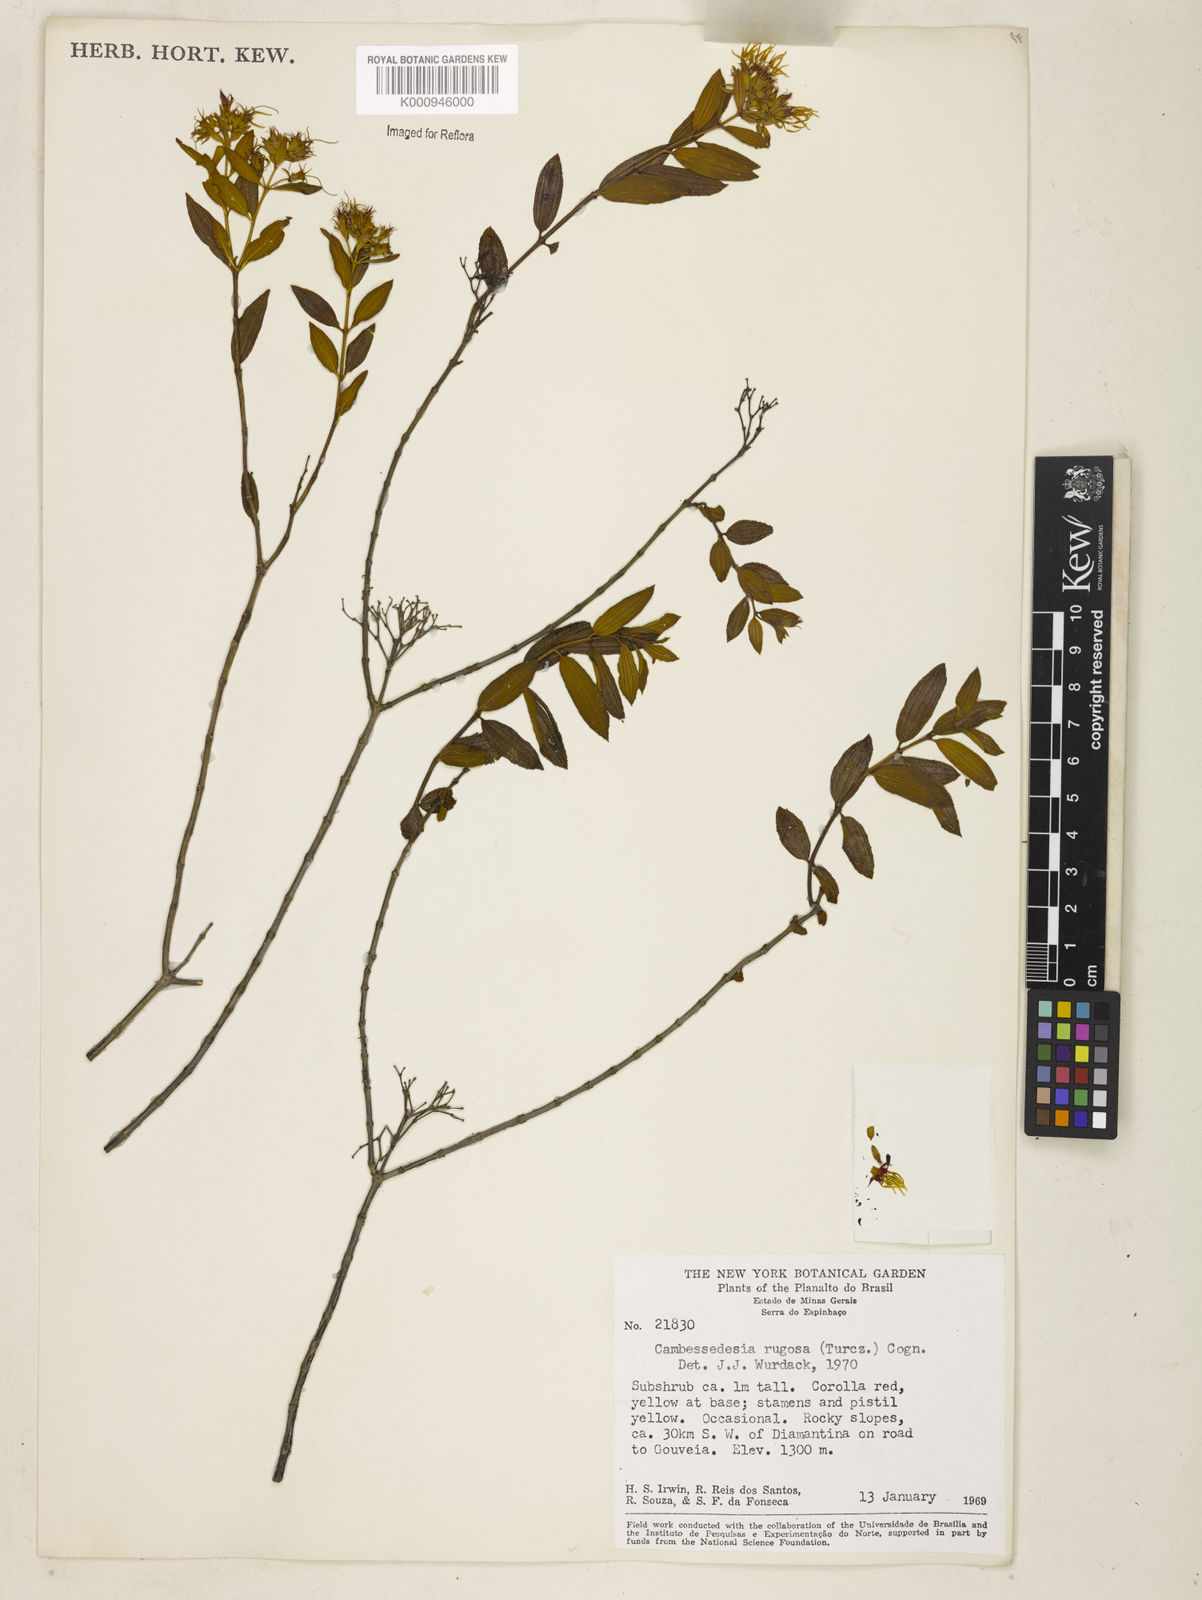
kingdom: Plantae
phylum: Tracheophyta
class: Magnoliopsida
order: Myrtales
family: Melastomataceae
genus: Cambessedesia
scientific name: Cambessedesia corymbosa
